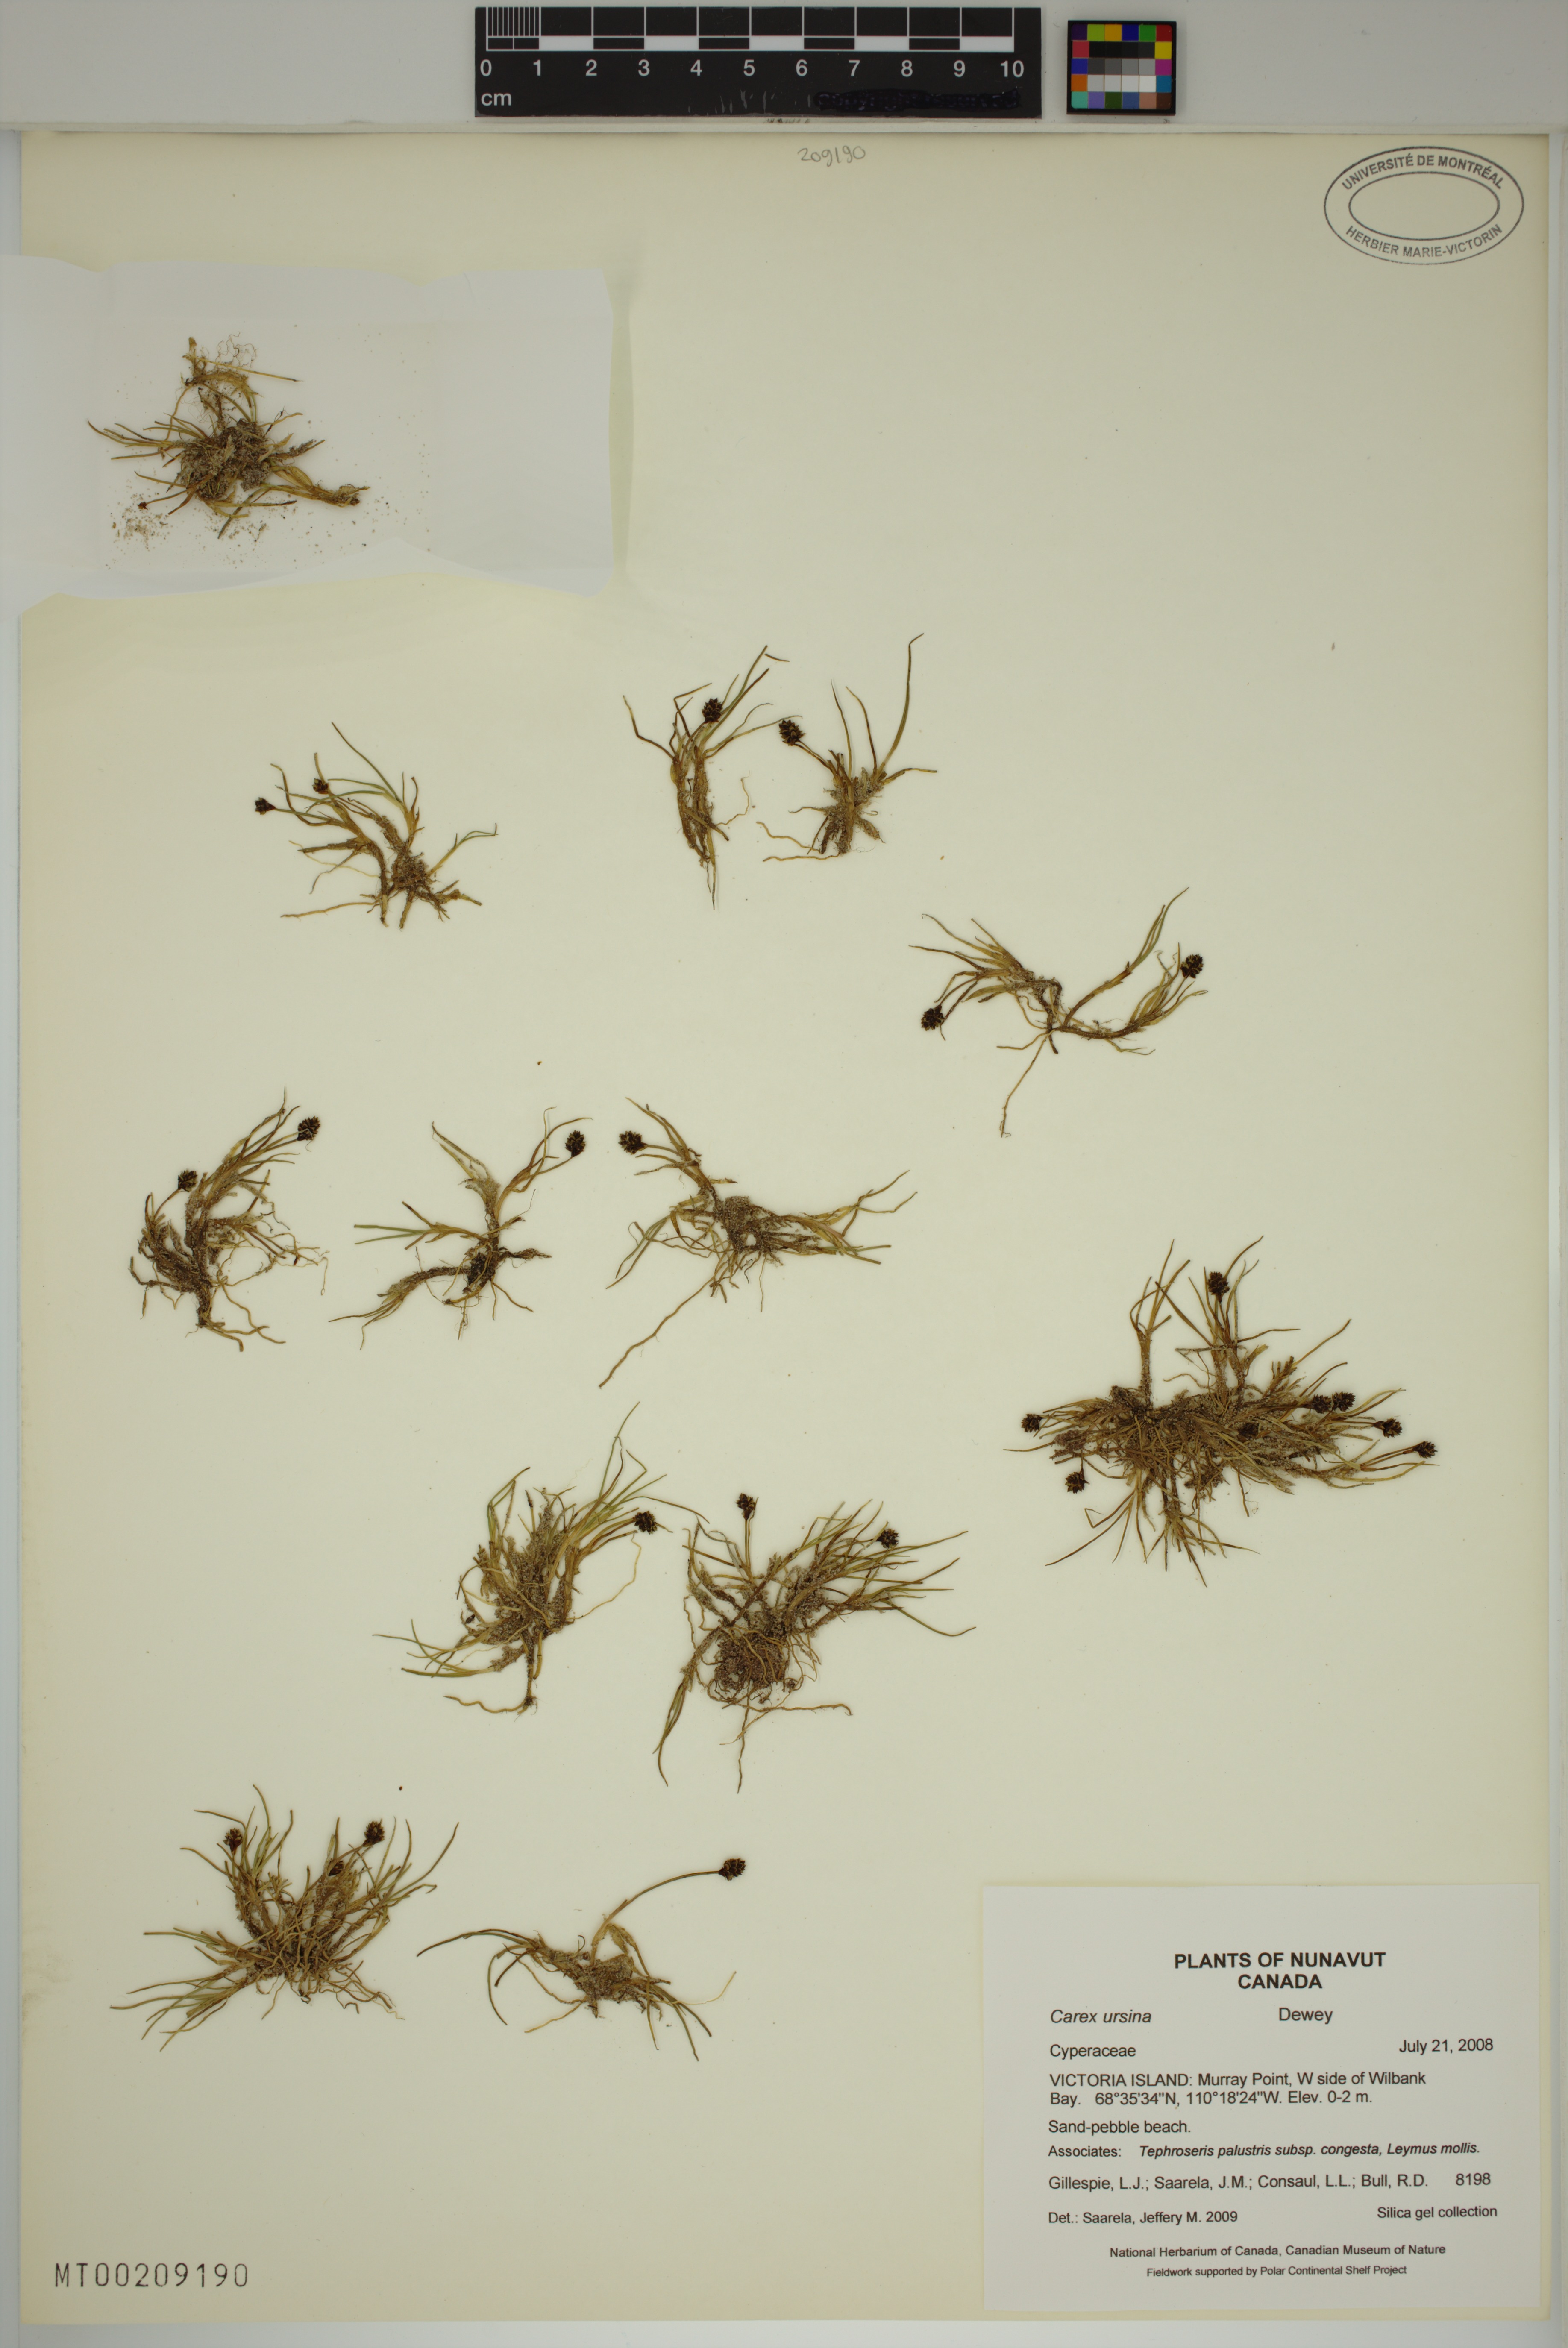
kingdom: Plantae
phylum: Tracheophyta
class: Liliopsida
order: Poales
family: Cyperaceae
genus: Carex
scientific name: Carex ursina
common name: Bear sedge
